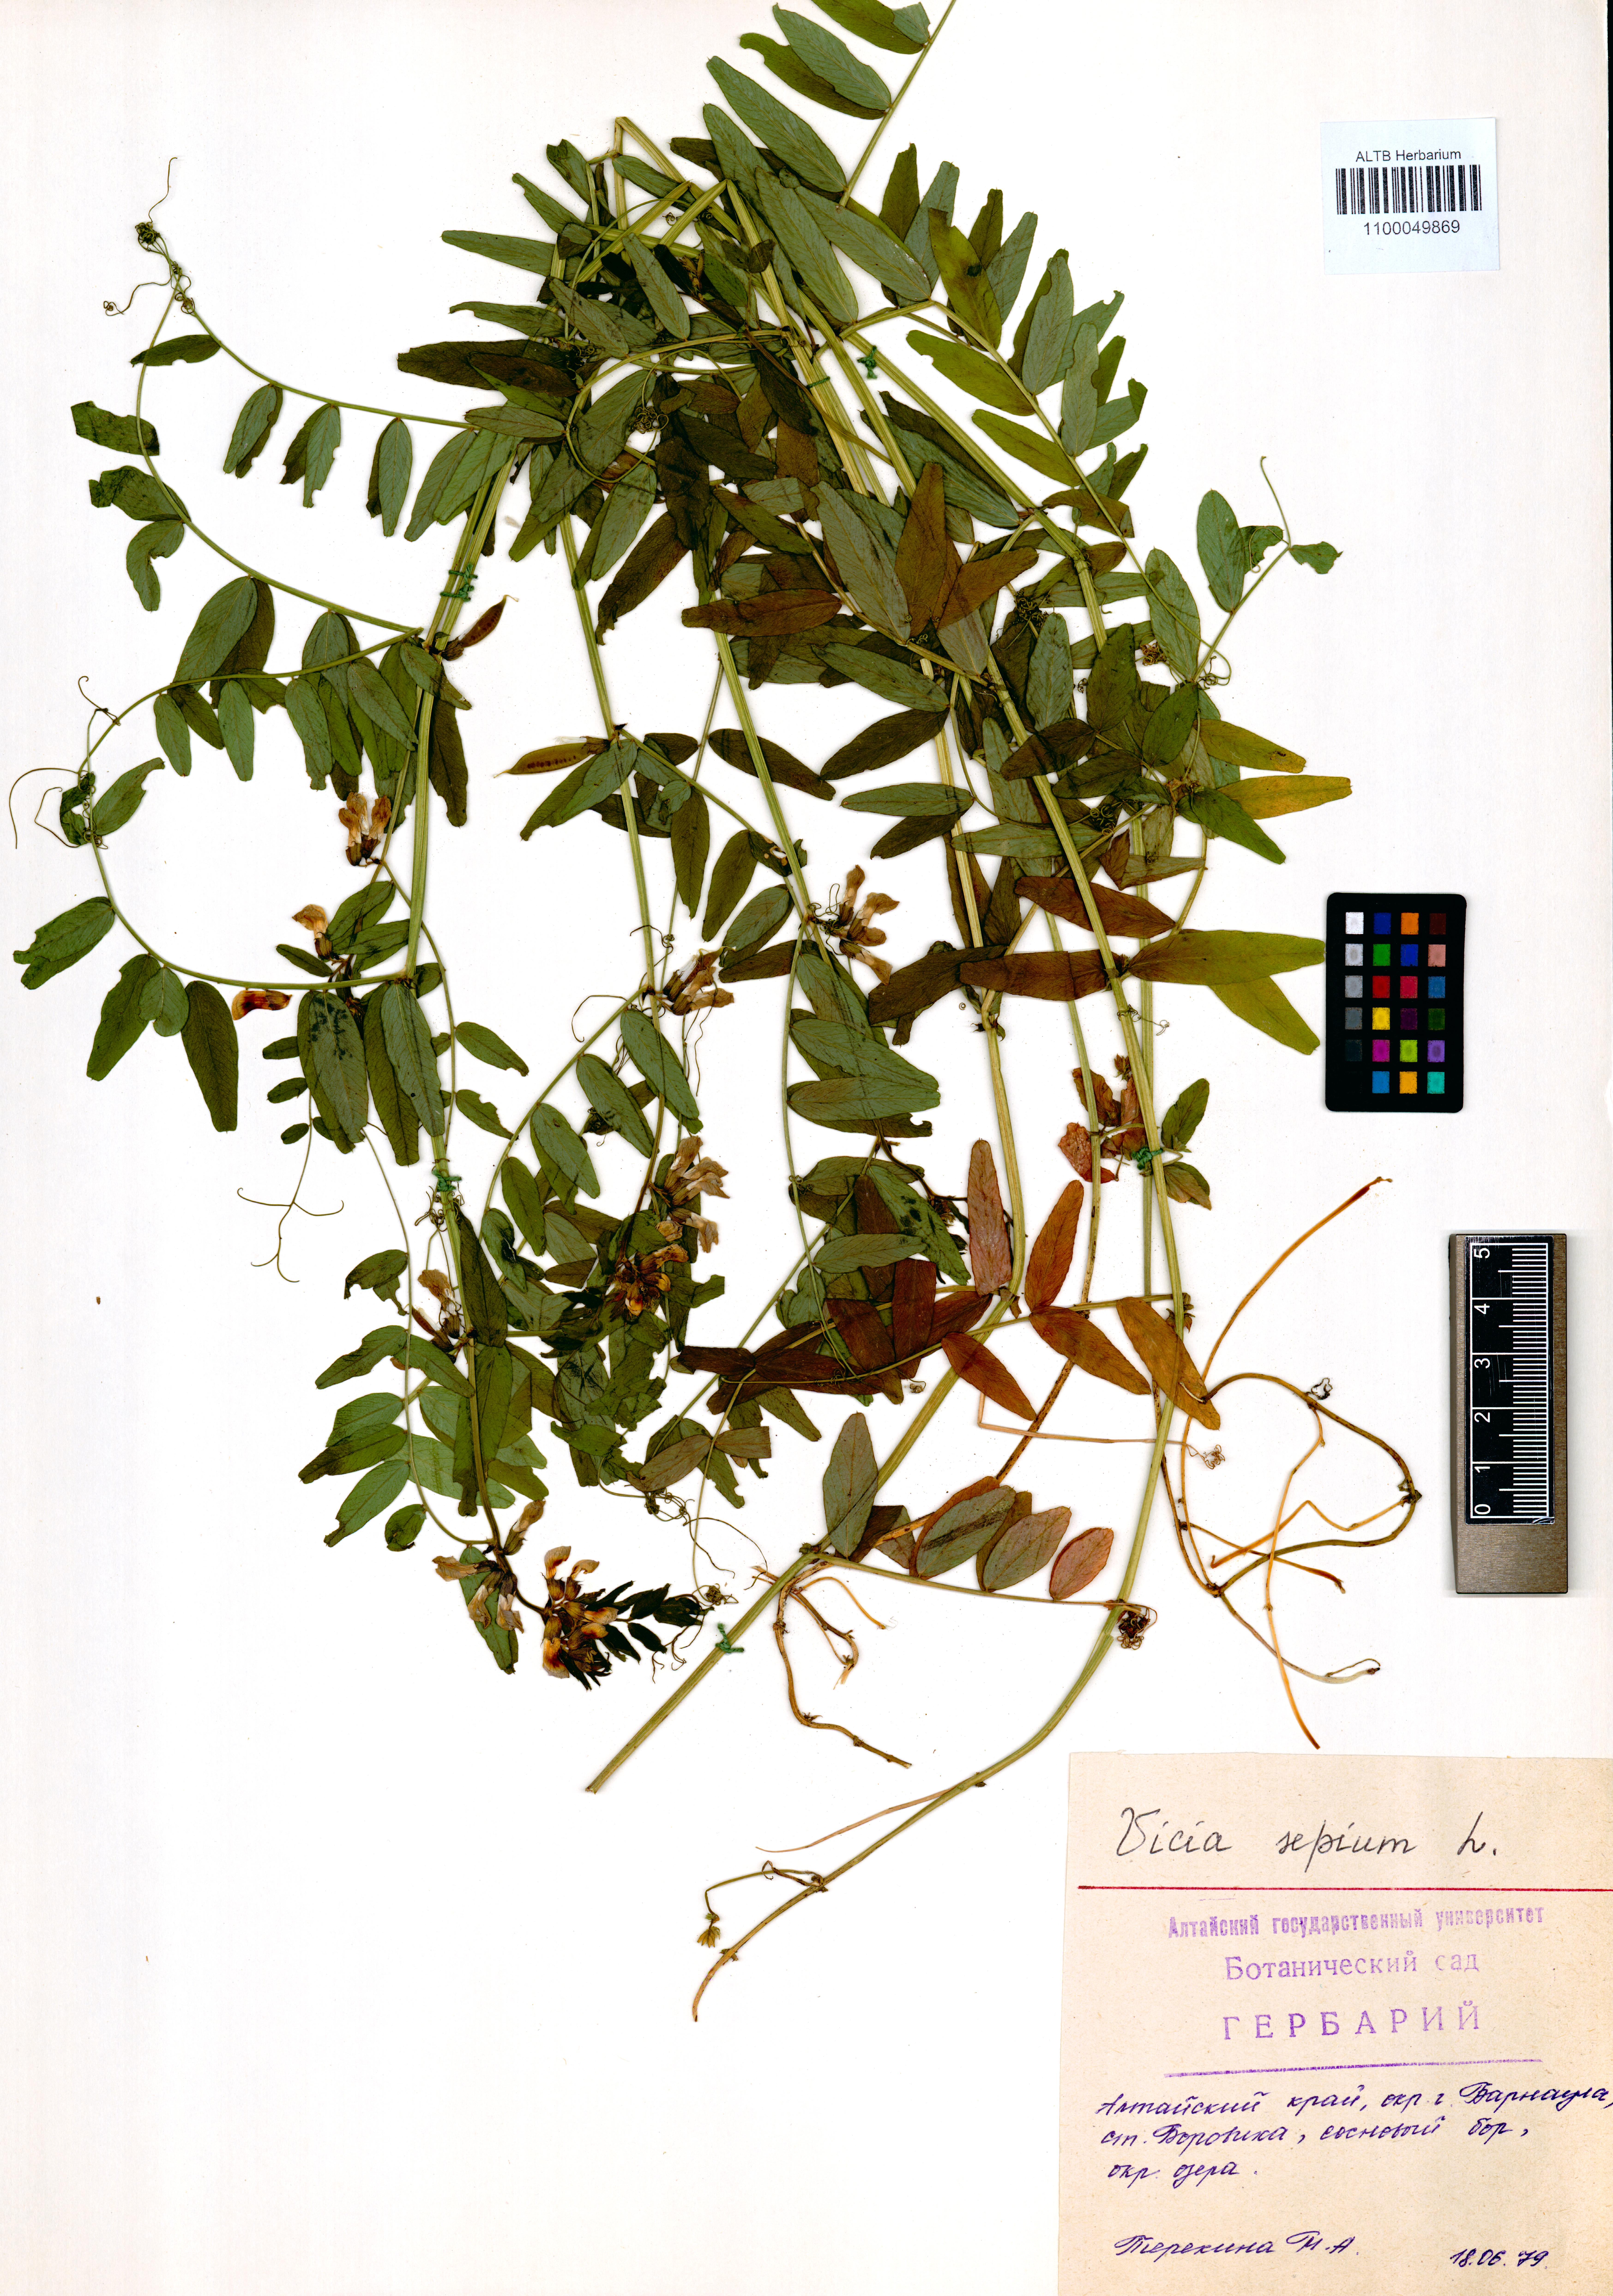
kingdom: Plantae
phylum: Tracheophyta
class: Magnoliopsida
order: Fabales
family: Fabaceae
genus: Vicia
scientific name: Vicia sepium
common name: Bush vetch
